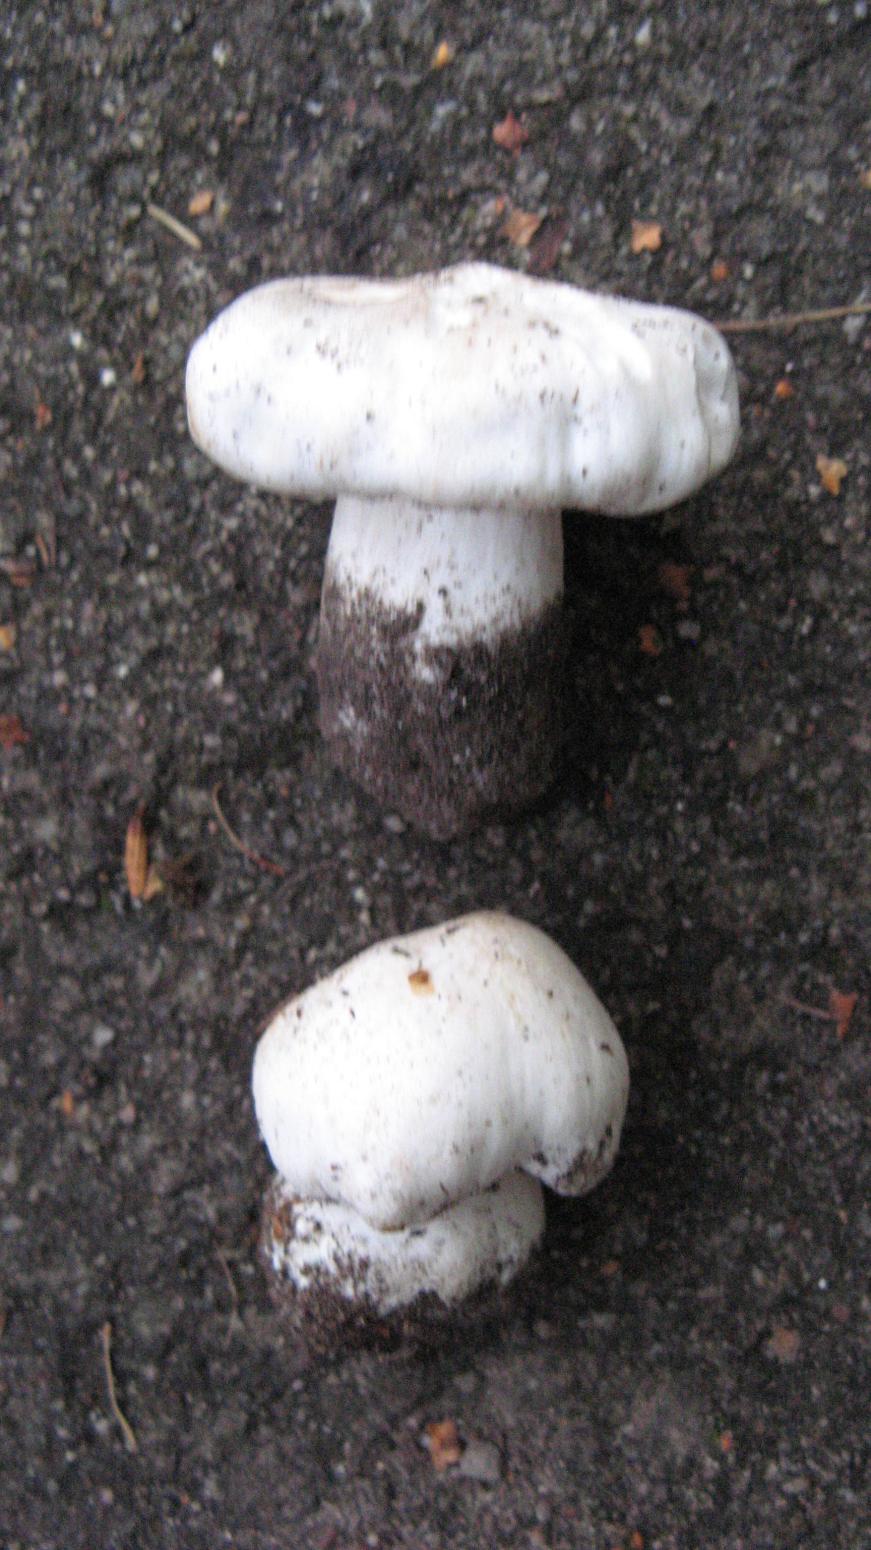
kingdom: Fungi
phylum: Basidiomycota
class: Agaricomycetes
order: Agaricales
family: Tricholomataceae
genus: Tricholoma
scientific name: Tricholoma columbetta
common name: silke-ridderhat
